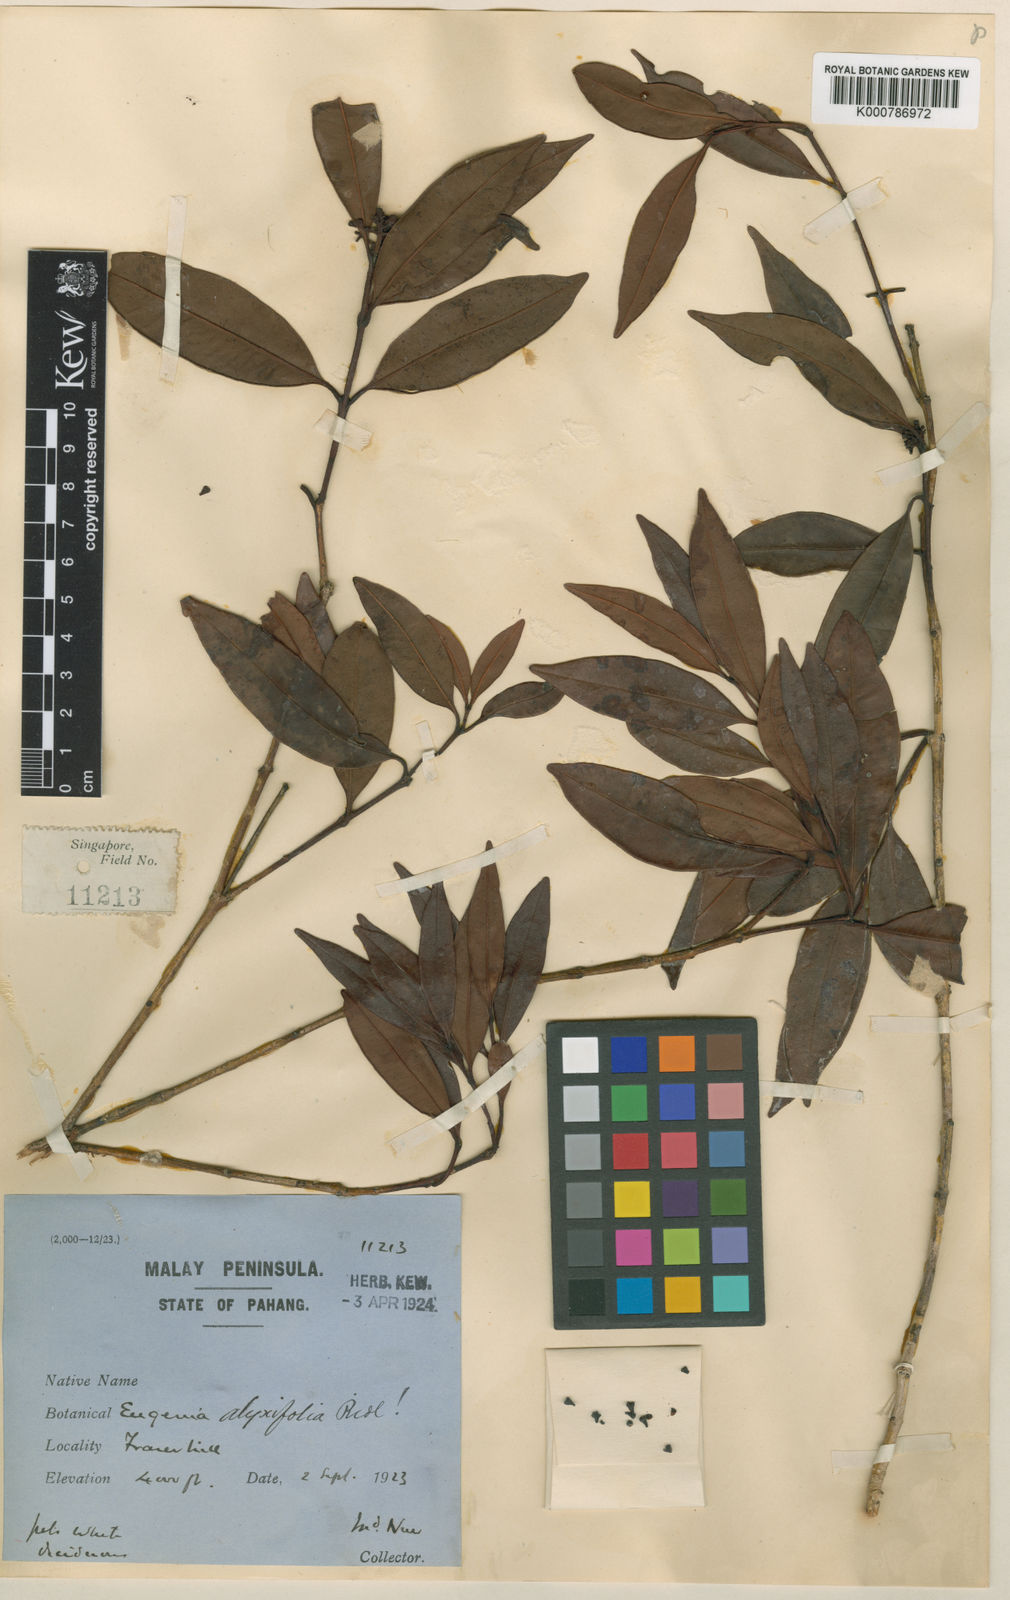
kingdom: Plantae
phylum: Tracheophyta
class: Magnoliopsida
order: Myrtales
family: Myrtaceae
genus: Syzygium
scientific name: Syzygium alyxiifolium
